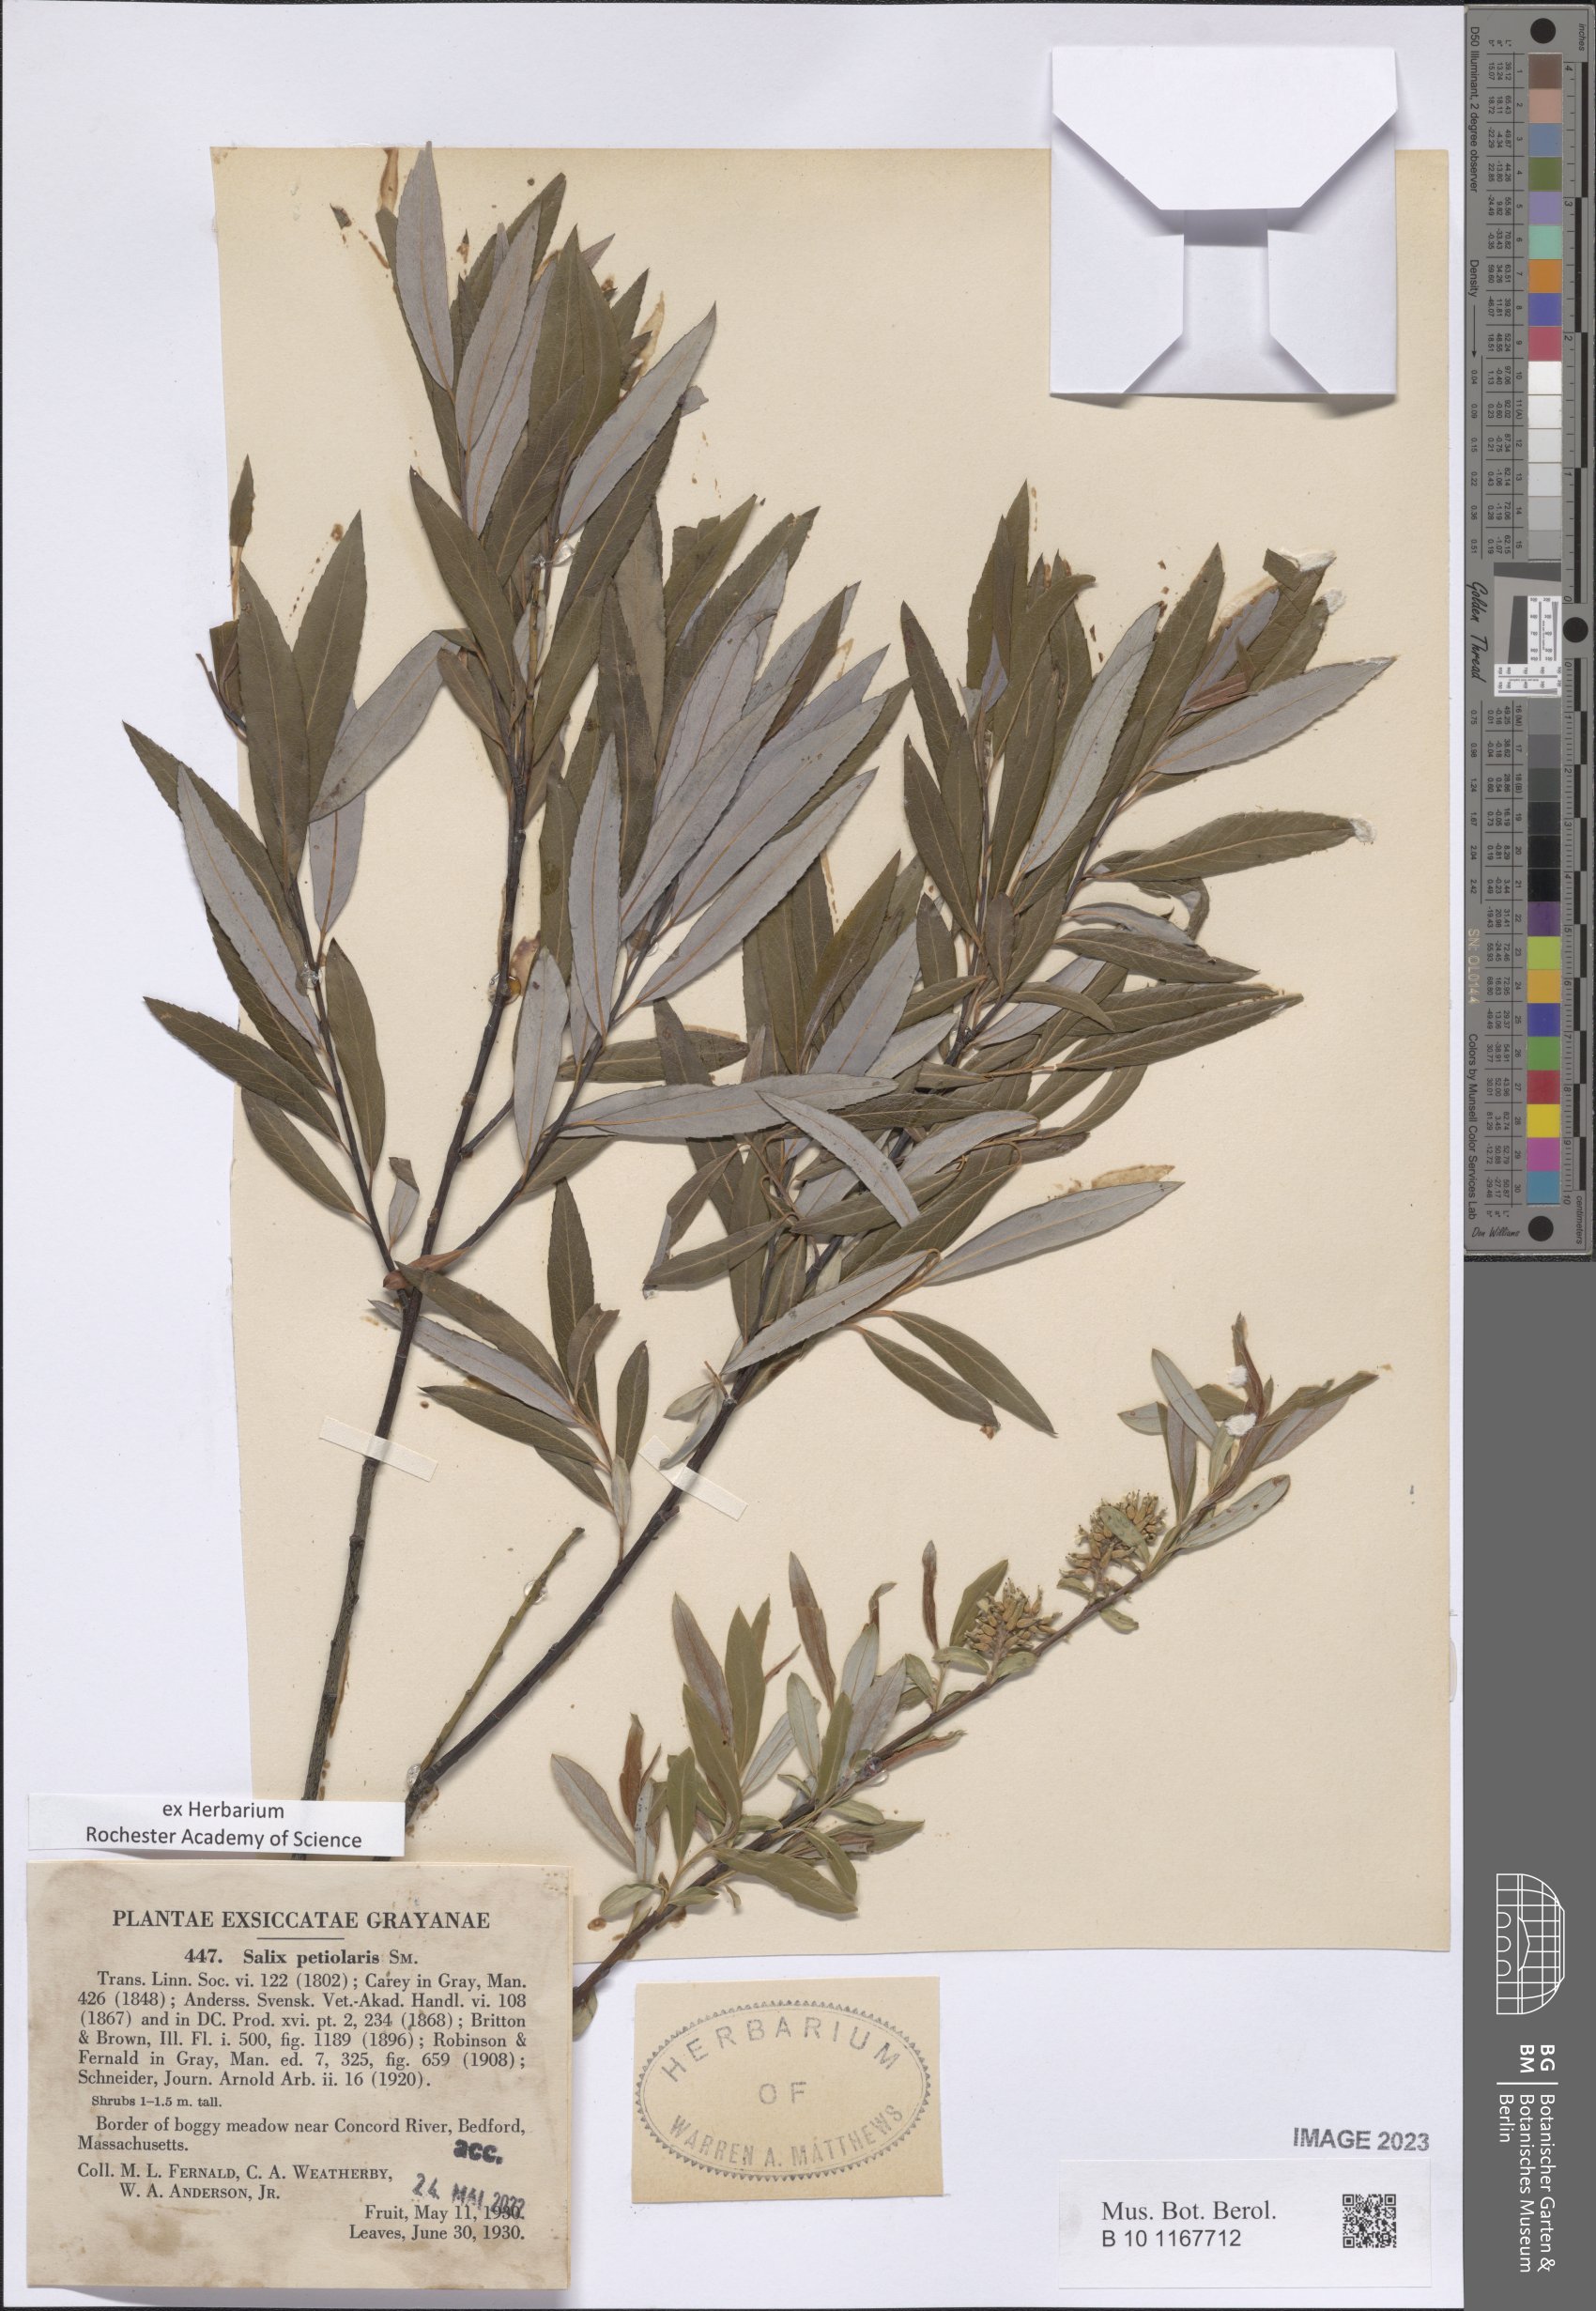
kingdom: Plantae
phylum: Tracheophyta
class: Magnoliopsida
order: Malpighiales
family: Salicaceae
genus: Salix
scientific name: Salix petiolaris
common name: Slender willow
